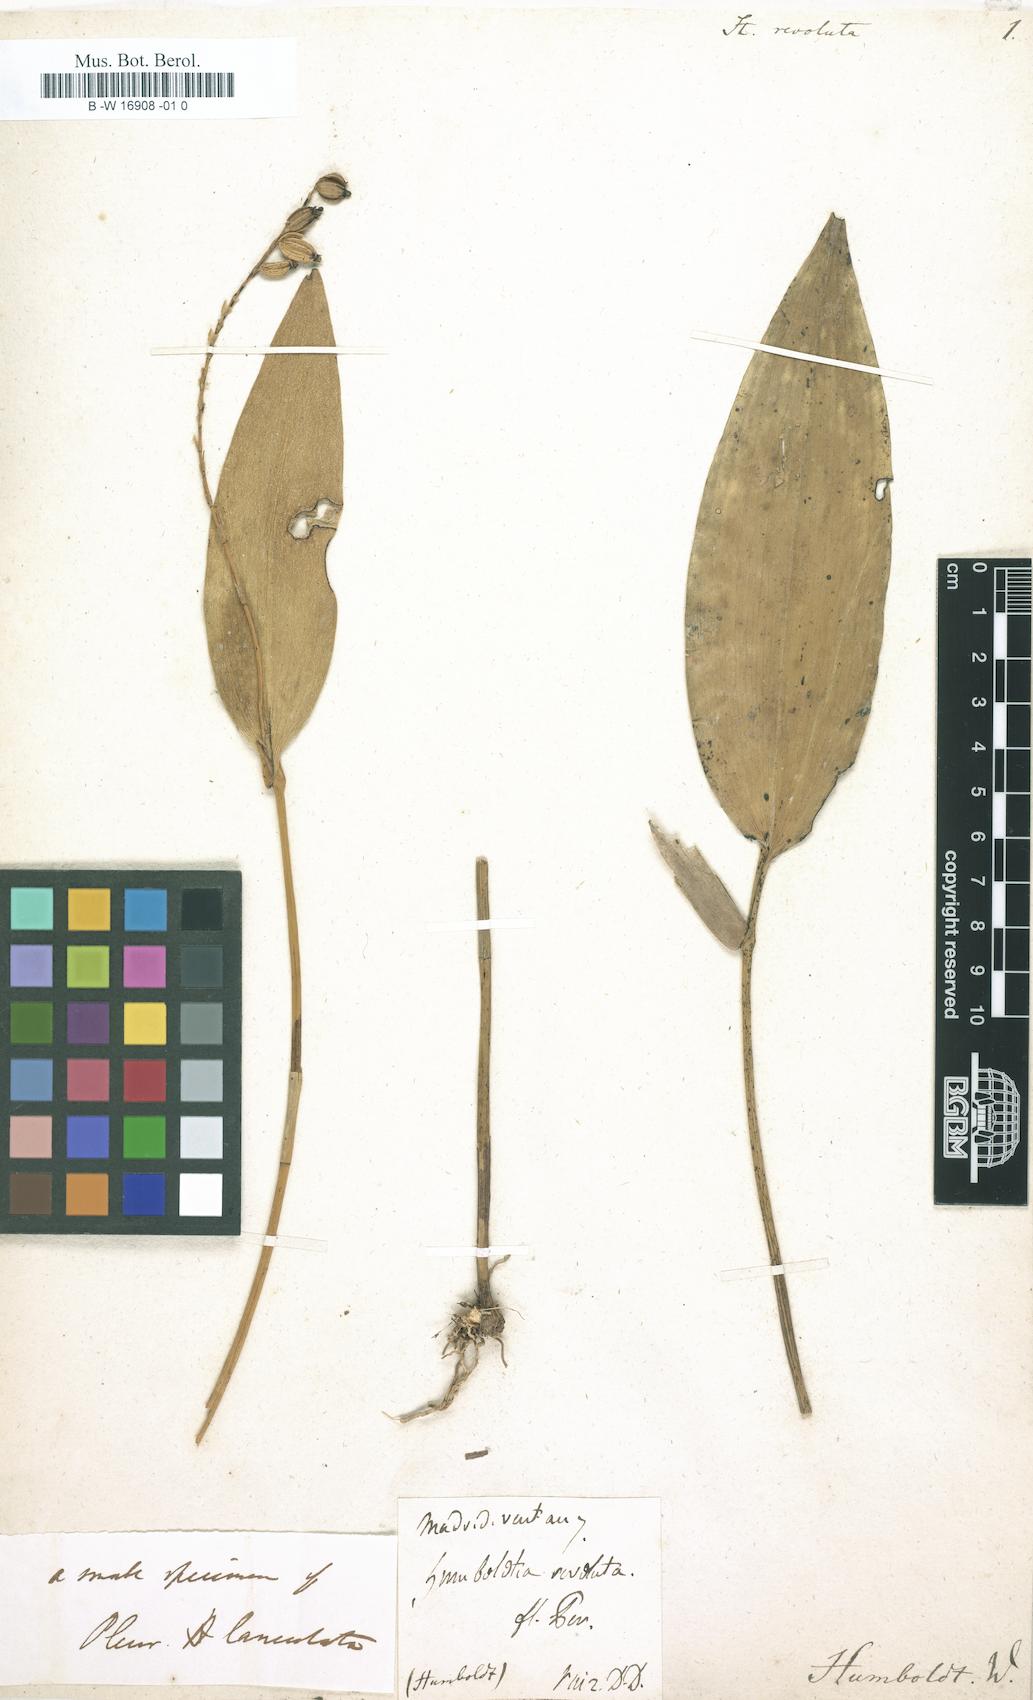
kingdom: Plantae
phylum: Tracheophyta
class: Liliopsida
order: Asparagales
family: Orchidaceae
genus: Pleurothallis
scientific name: Pleurothallis revoluta
